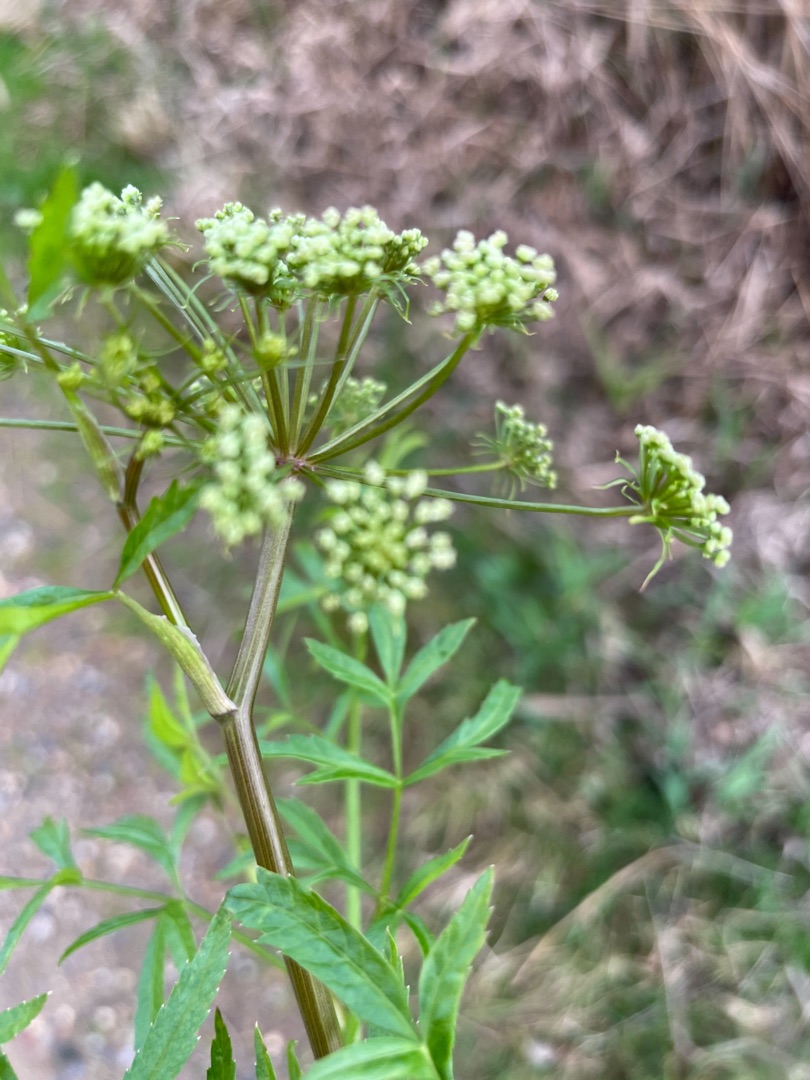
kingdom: Plantae
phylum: Tracheophyta
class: Magnoliopsida
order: Apiales
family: Apiaceae
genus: Cicuta
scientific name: Cicuta virosa
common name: Gifttyde
